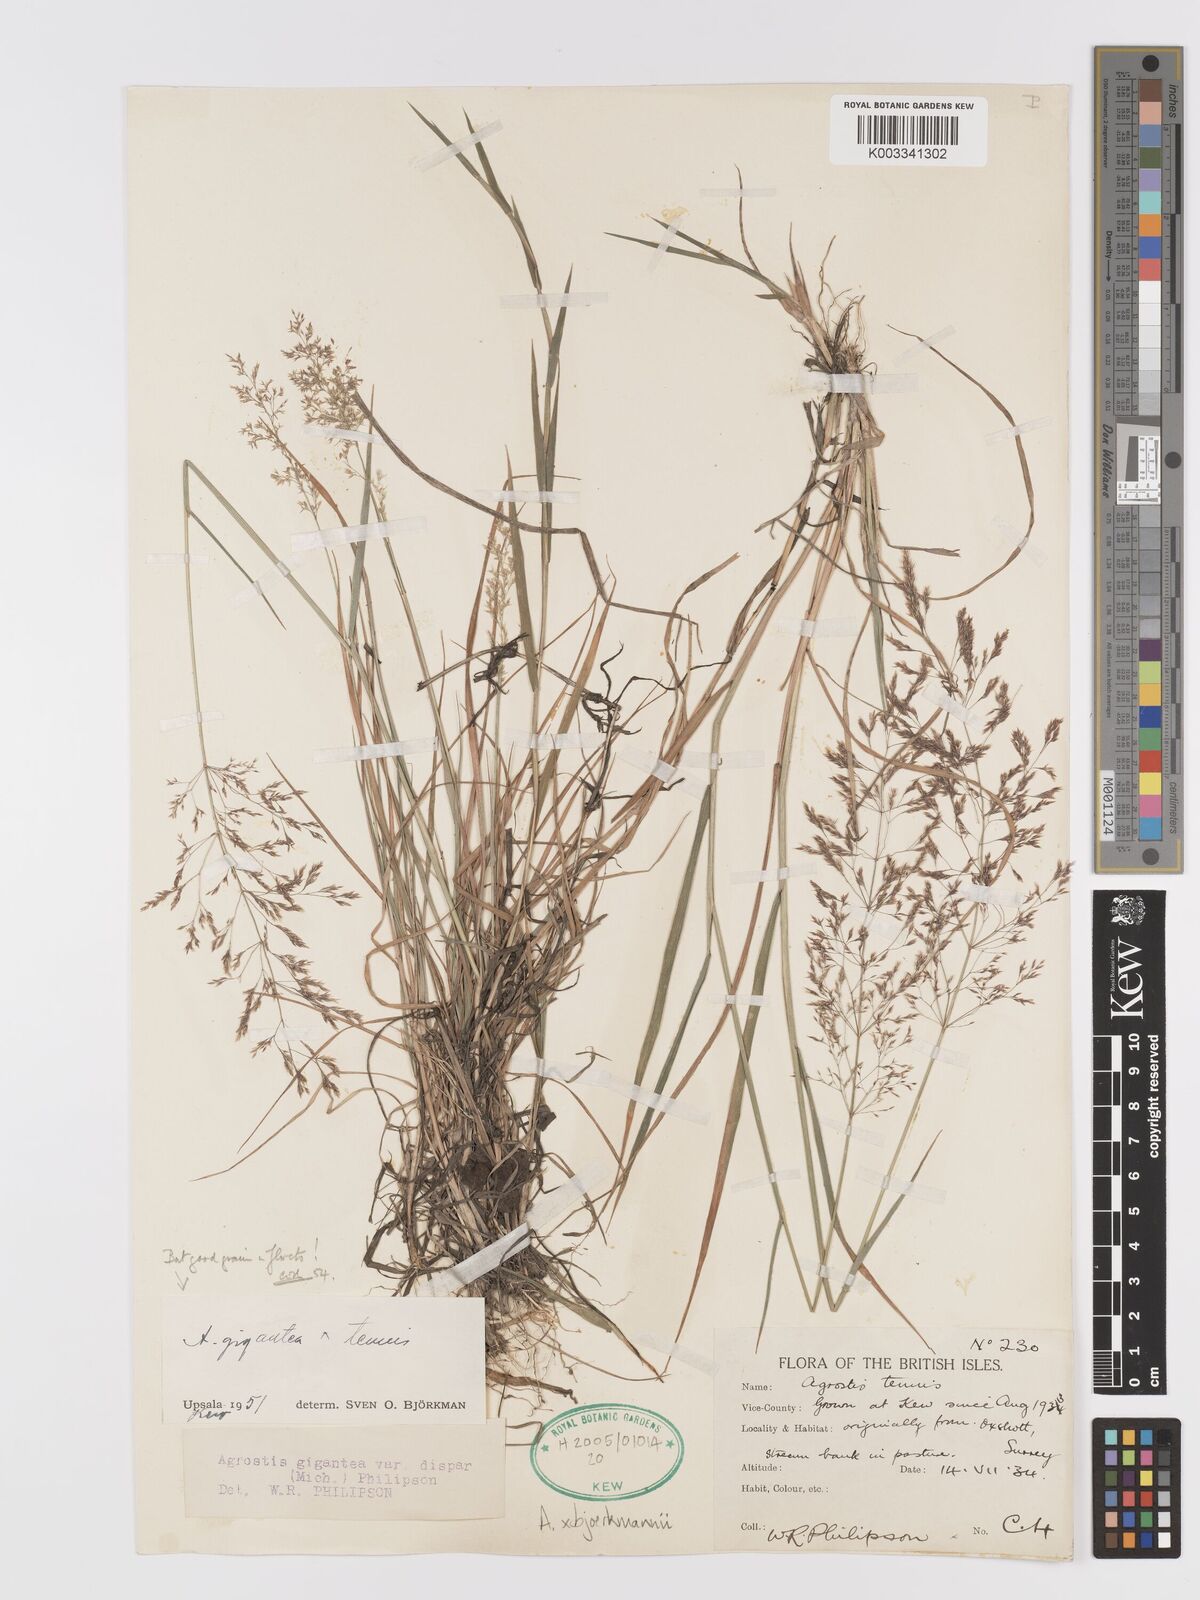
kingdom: Plantae
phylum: Tracheophyta
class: Liliopsida
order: Poales
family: Poaceae
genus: Agrostis
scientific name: Agrostis gigantea
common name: Black bent
